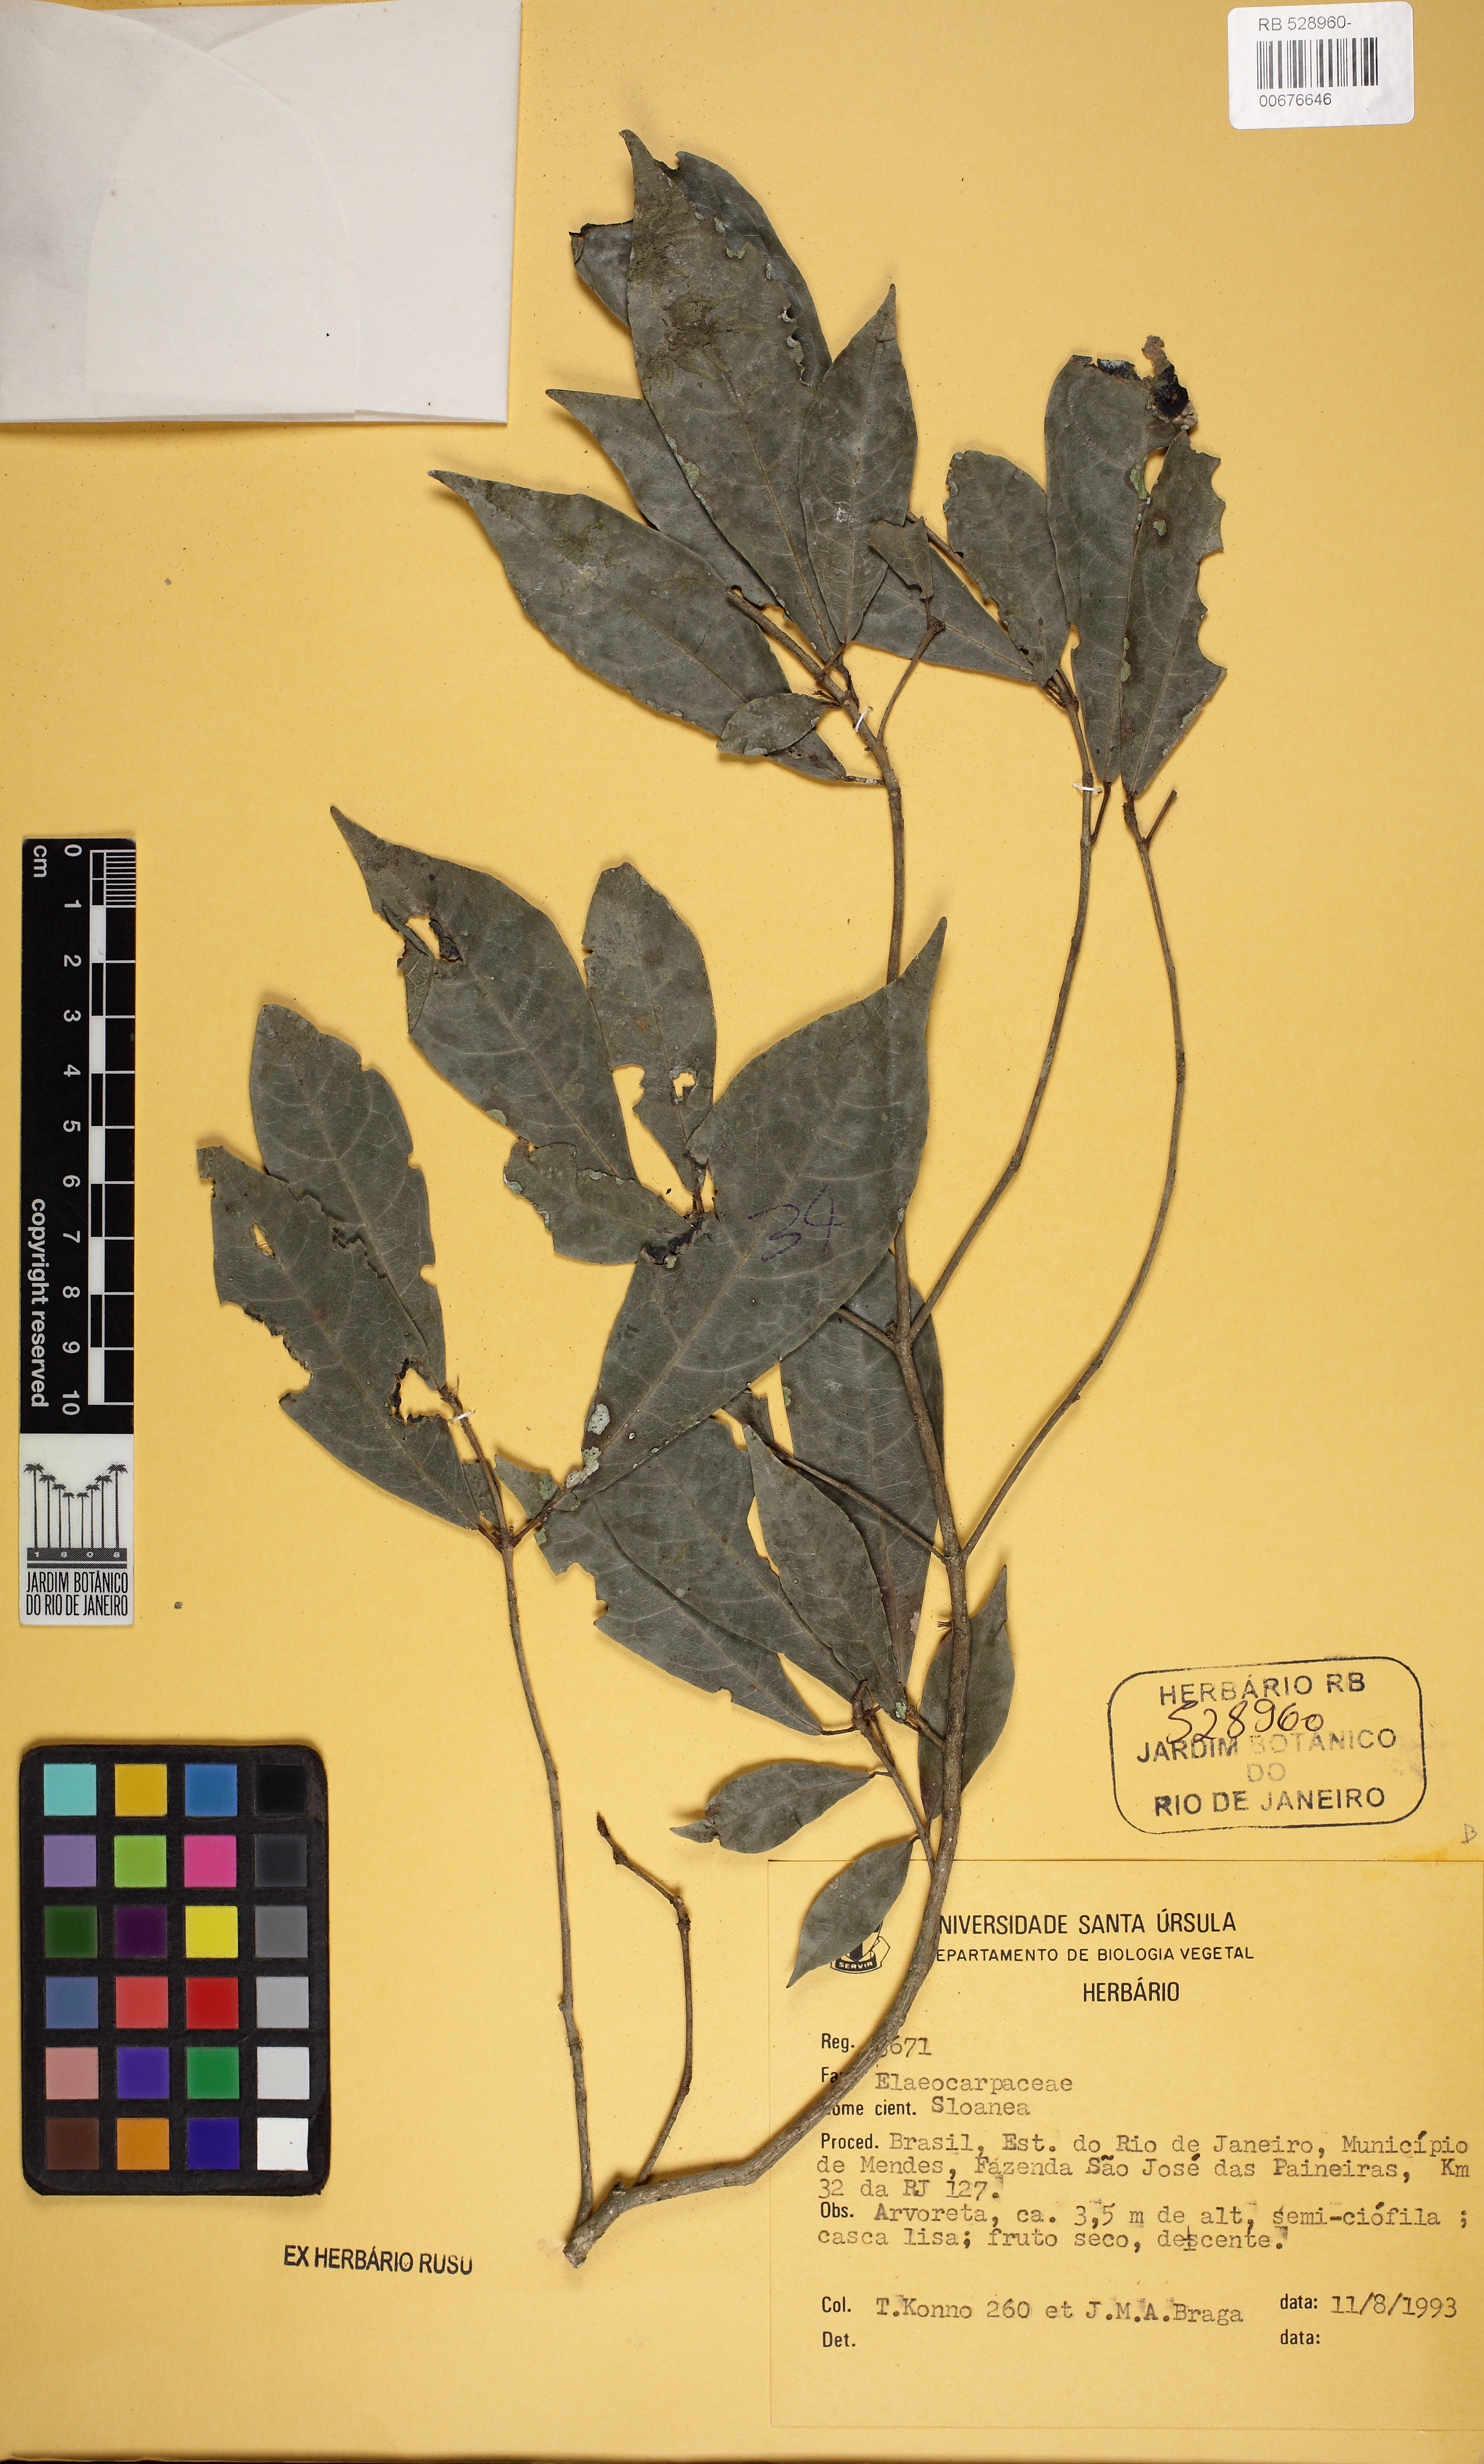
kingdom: Plantae
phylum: Tracheophyta
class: Magnoliopsida
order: Oxalidales
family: Elaeocarpaceae
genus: Sloanea
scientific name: Sloanea hirsuta
